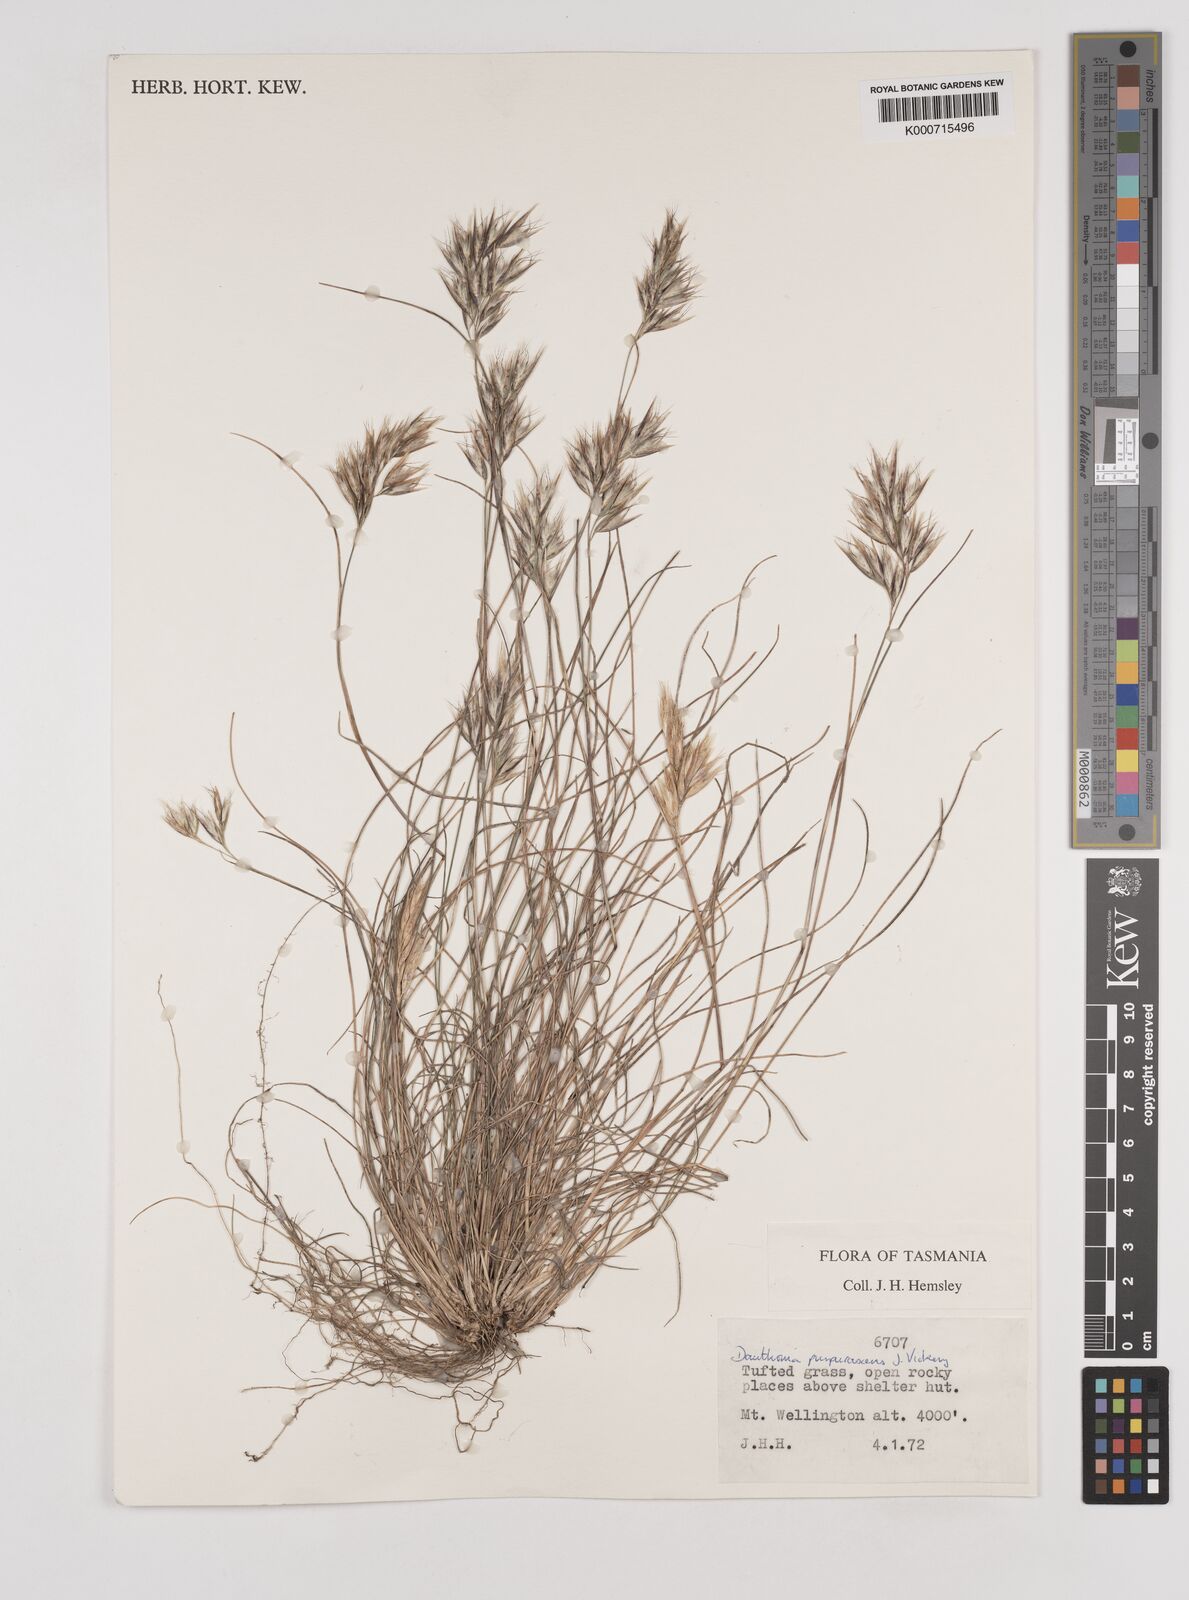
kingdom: Plantae
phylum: Tracheophyta
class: Liliopsida
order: Poales
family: Poaceae
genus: Rytidosperma
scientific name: Rytidosperma tenuius
